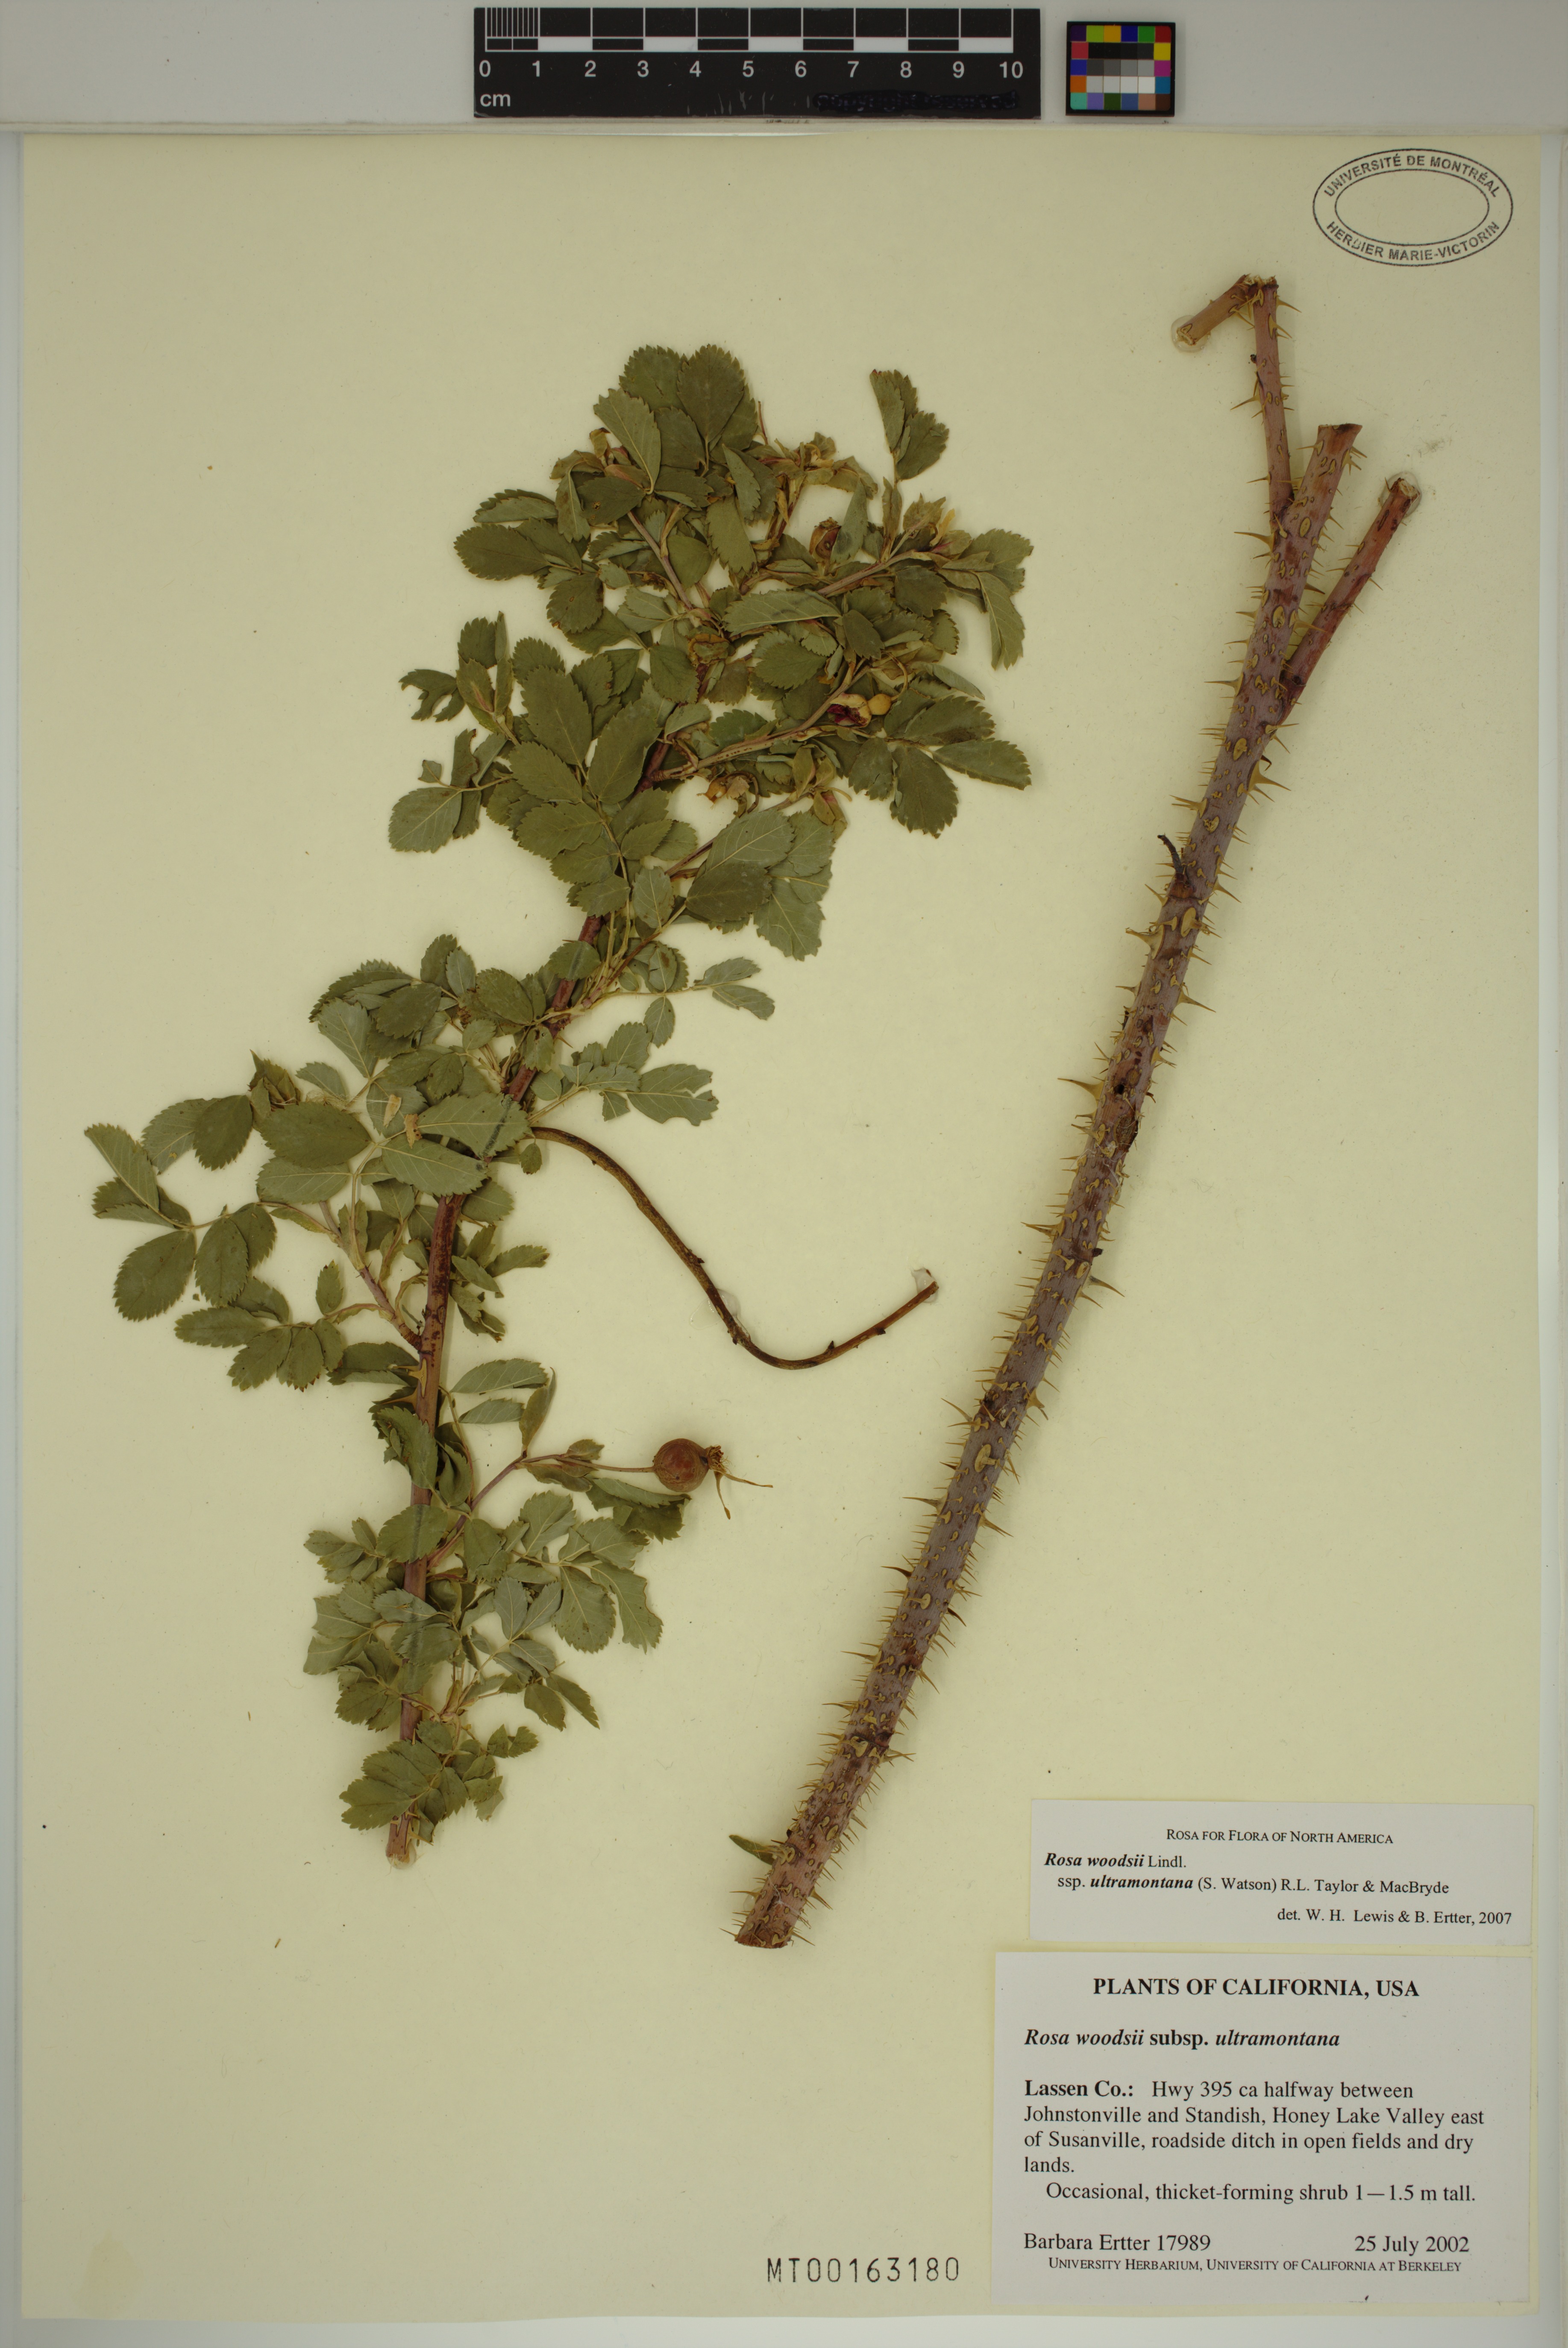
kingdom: Plantae
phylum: Tracheophyta
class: Magnoliopsida
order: Rosales
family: Rosaceae
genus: Rosa
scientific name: Rosa woodsii
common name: Woods's rose
